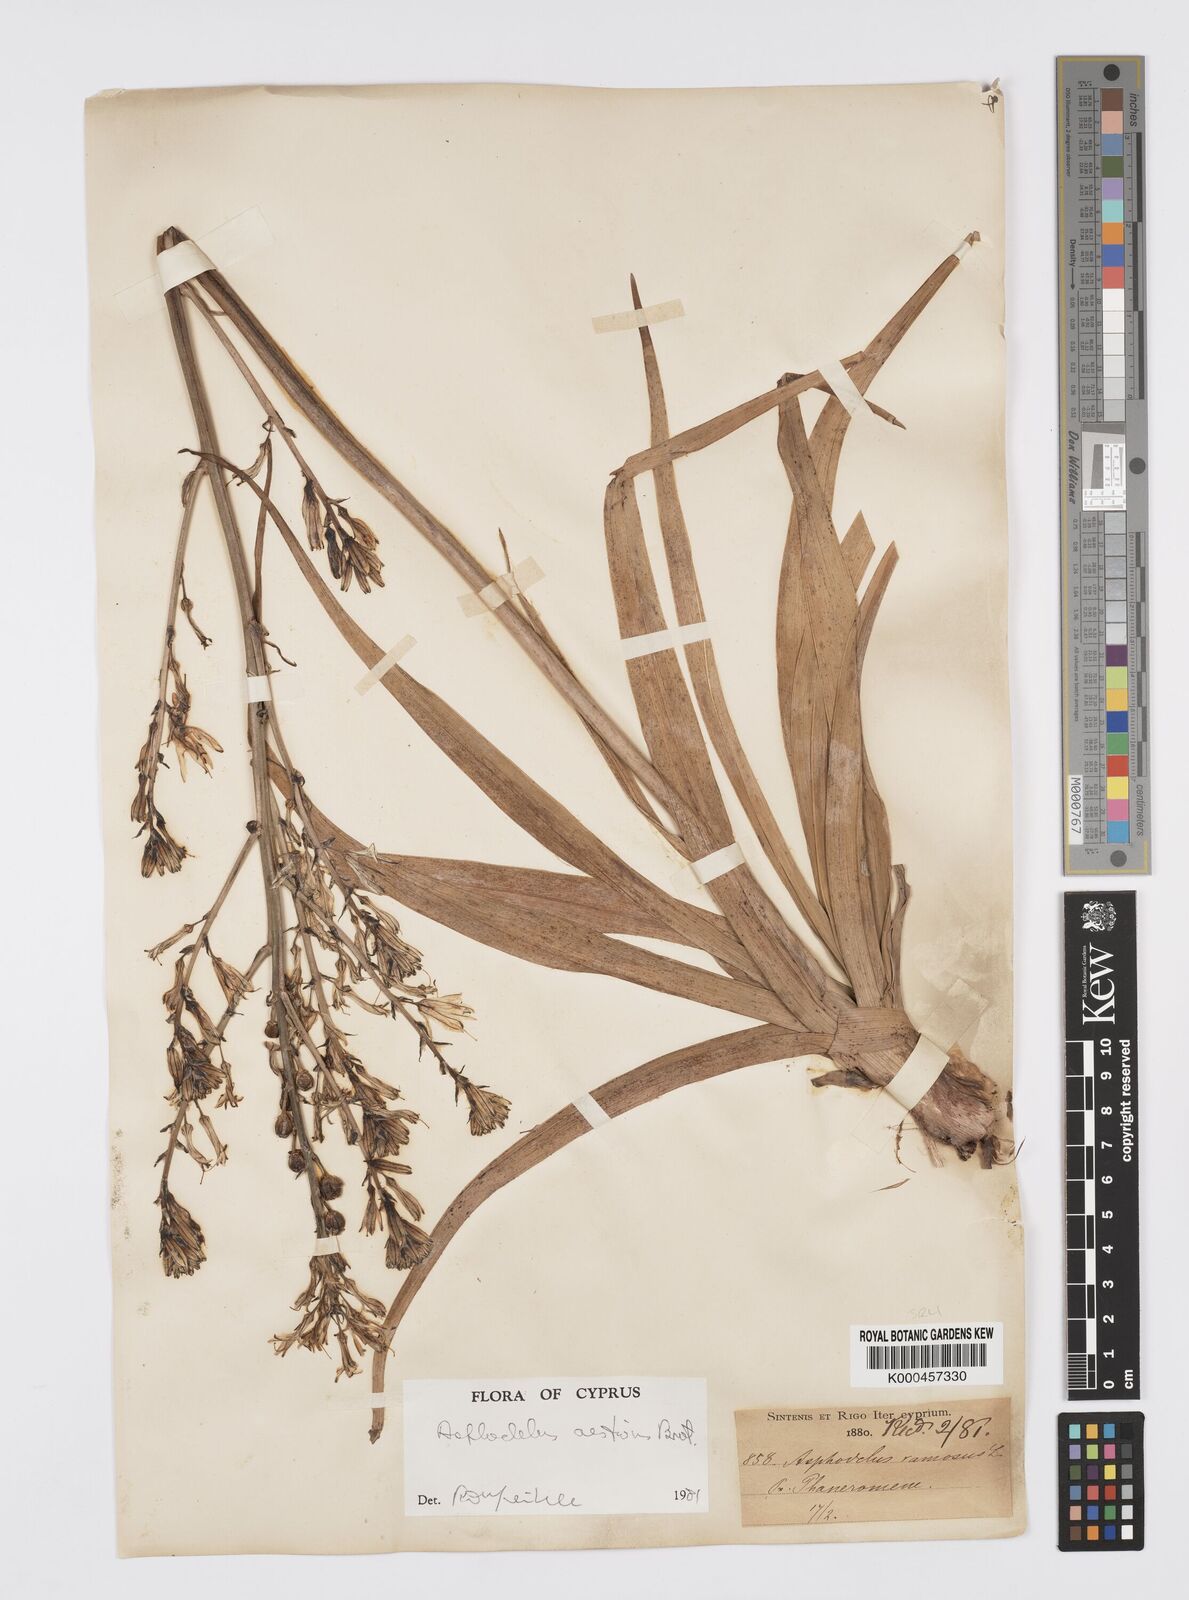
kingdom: Plantae
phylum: Tracheophyta
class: Liliopsida
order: Asparagales
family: Asphodelaceae
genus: Asphodelus
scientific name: Asphodelus aestivus
